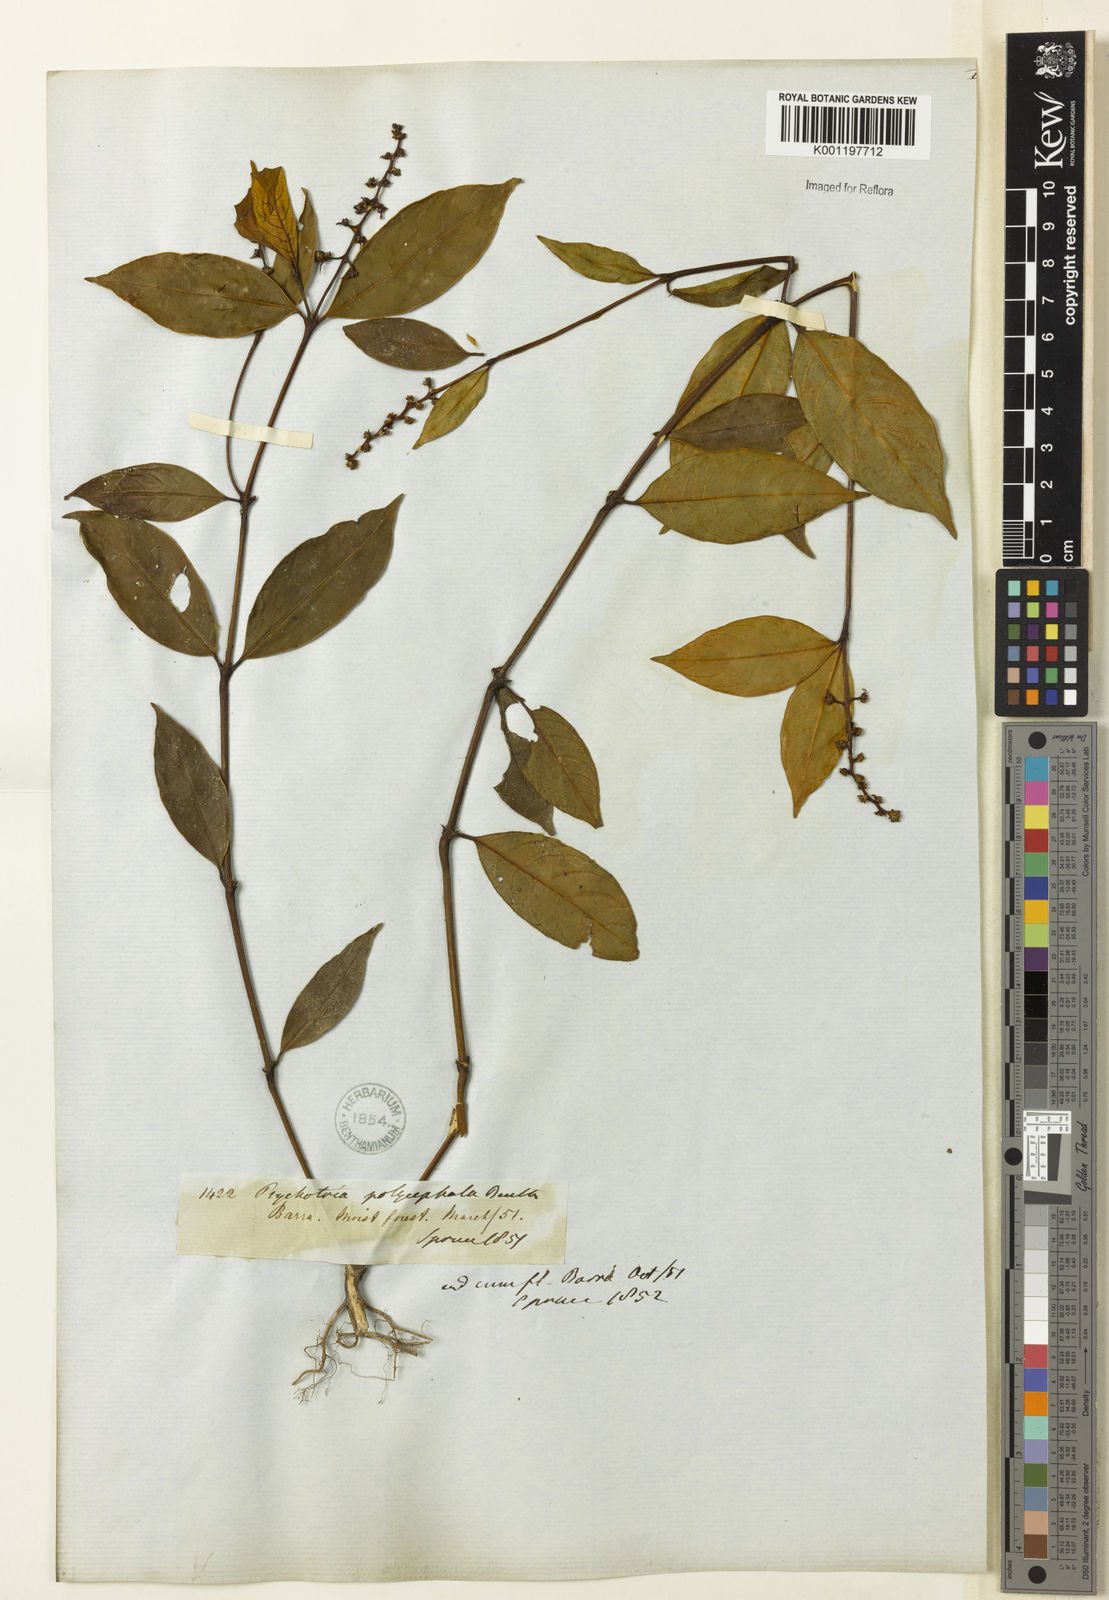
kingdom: Plantae
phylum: Tracheophyta
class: Magnoliopsida
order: Gentianales
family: Rubiaceae
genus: Palicourea
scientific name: Palicourea polycephala
